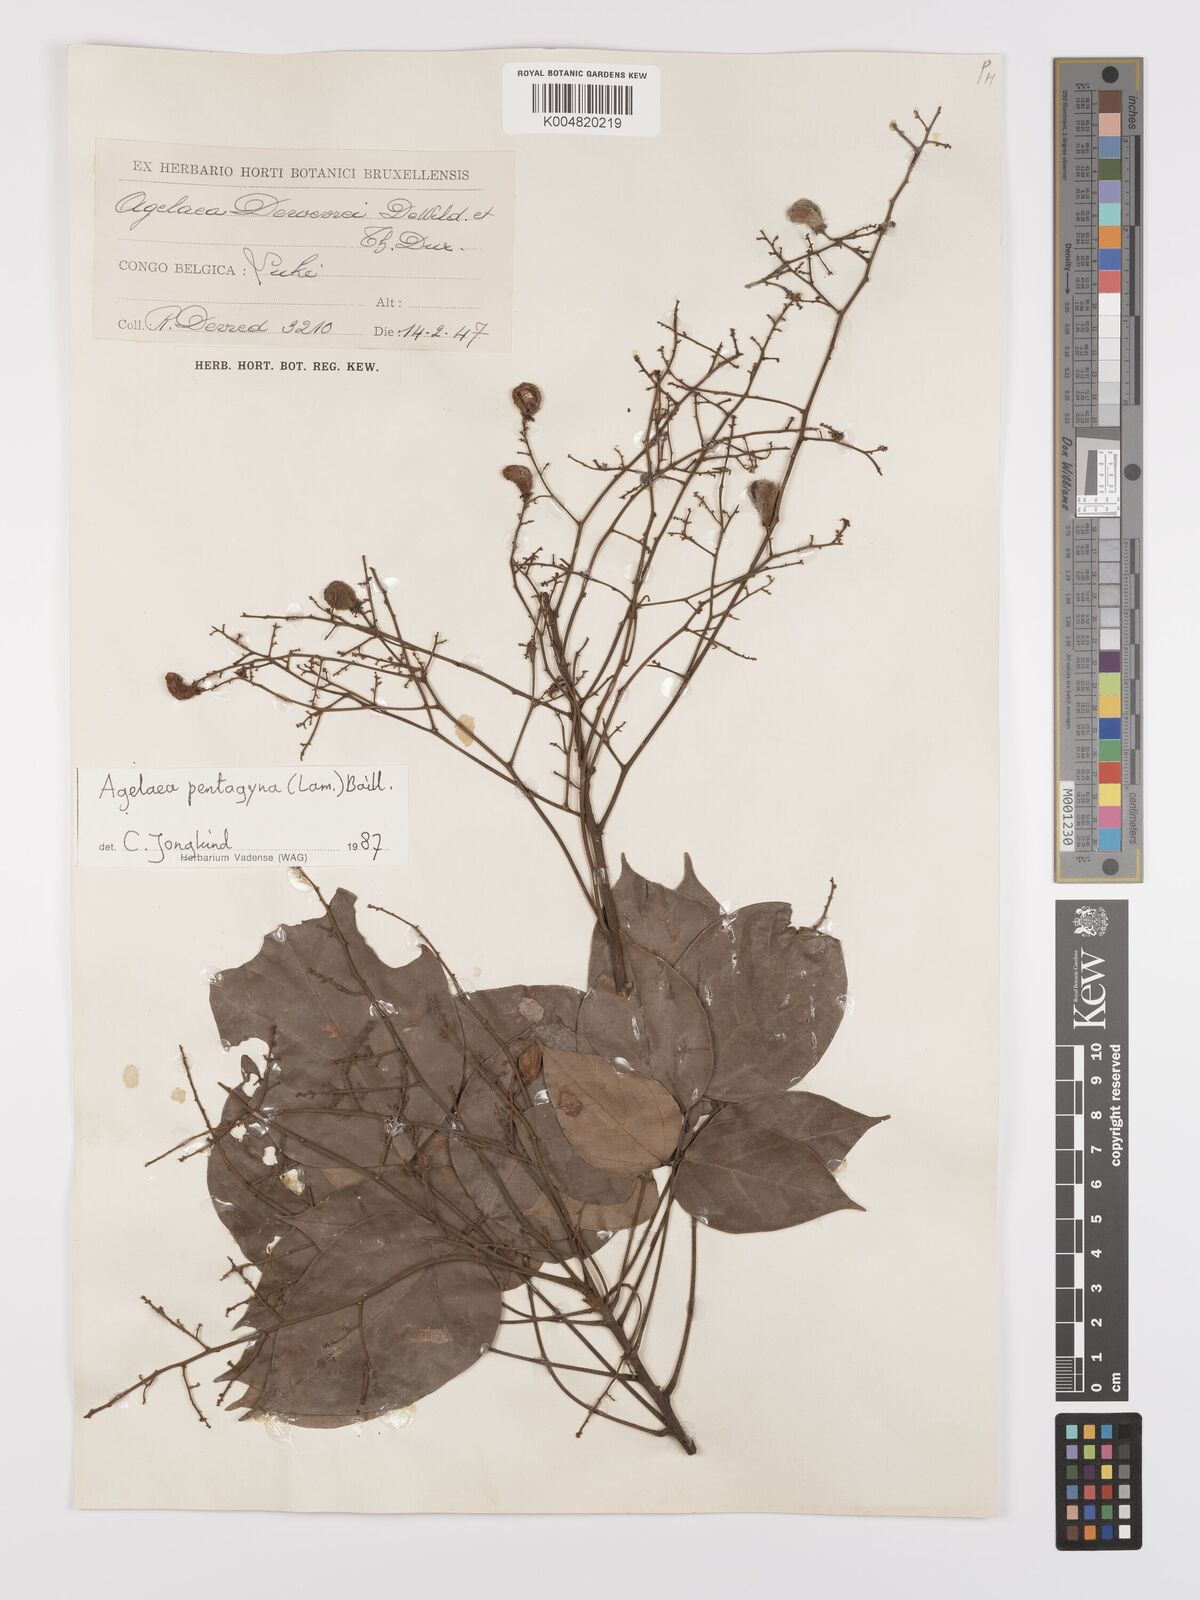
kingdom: Plantae
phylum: Tracheophyta
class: Magnoliopsida
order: Oxalidales
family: Connaraceae
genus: Agelaea
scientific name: Agelaea pentagyna
